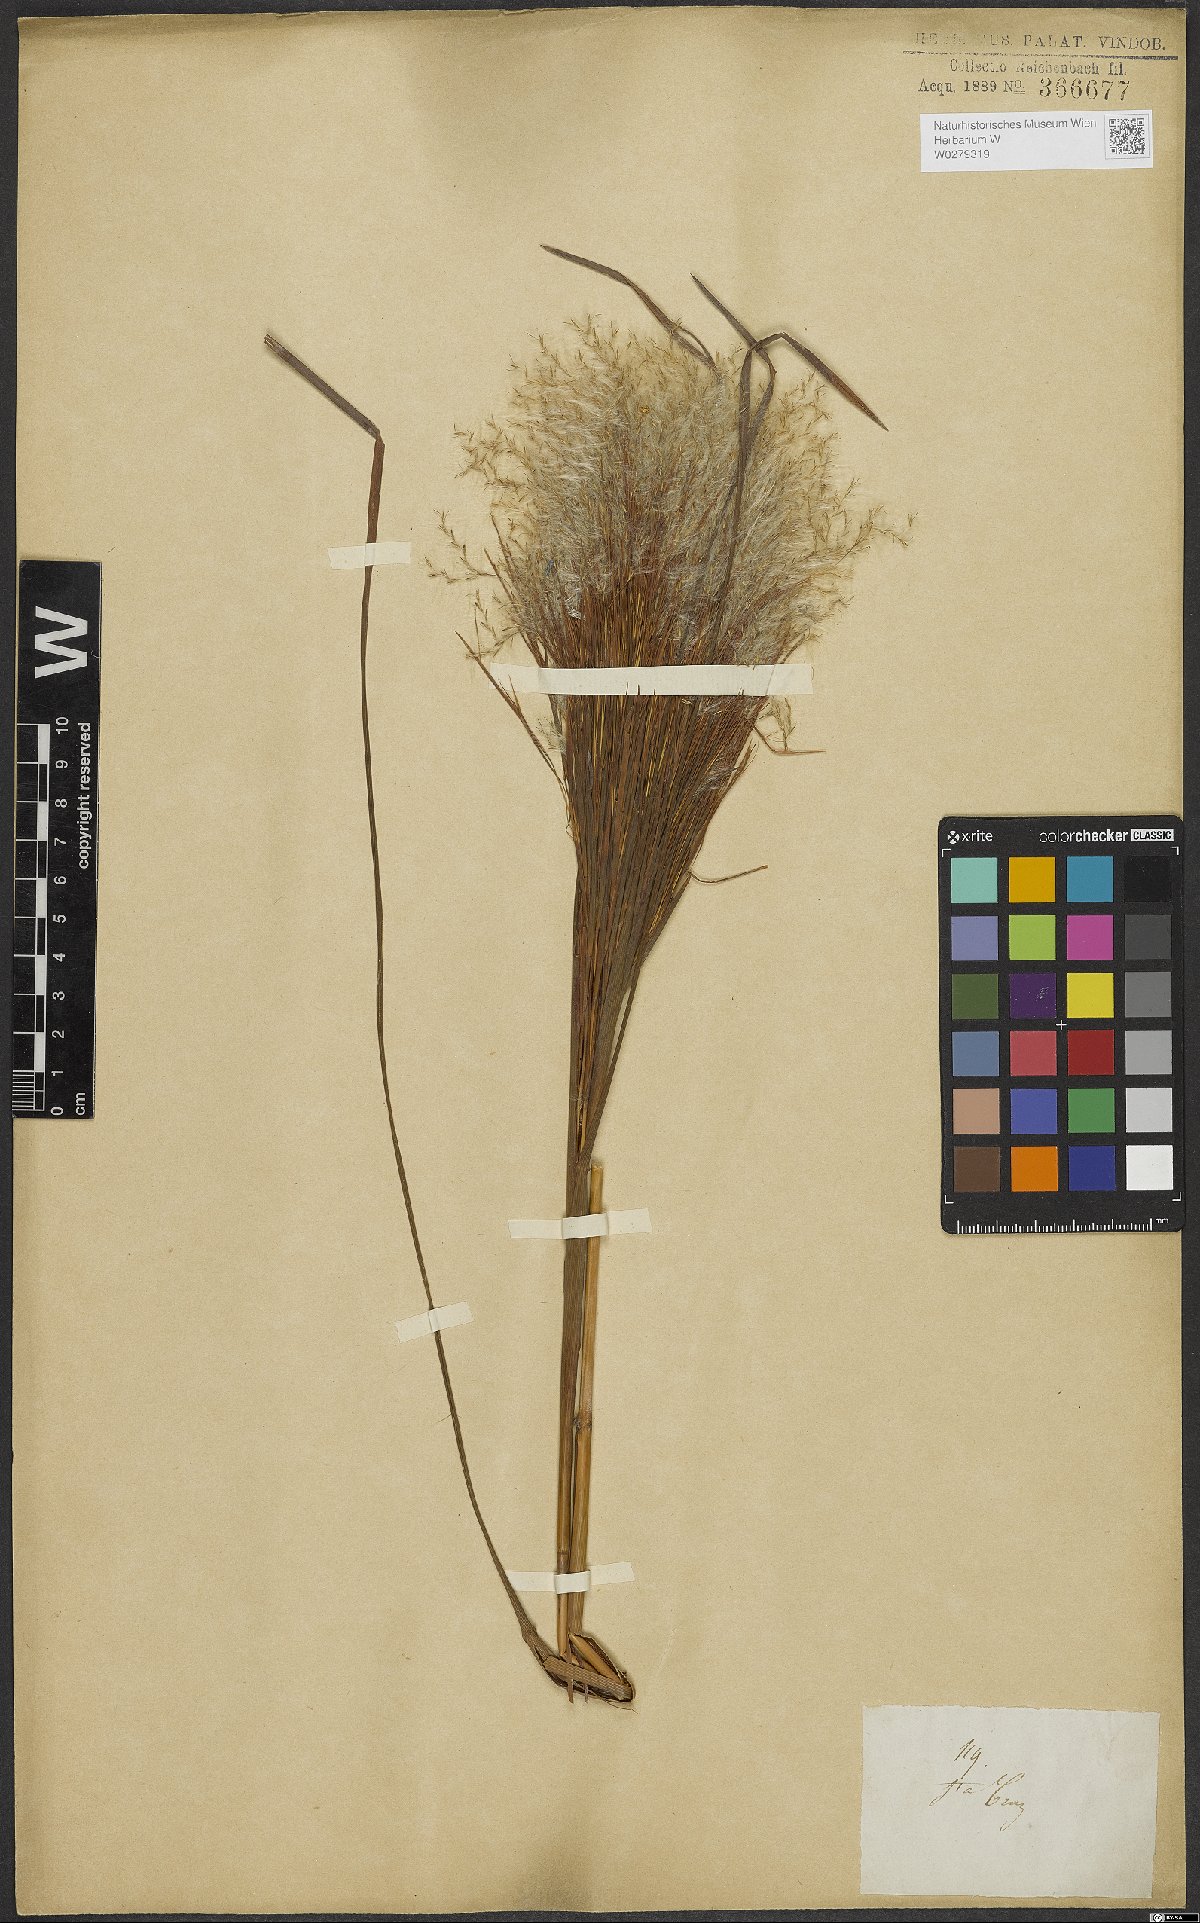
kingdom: Plantae
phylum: Tracheophyta
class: Liliopsida
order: Poales
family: Poaceae
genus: Andropogon
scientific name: Andropogon bicornis
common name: West indian foxtail grass
